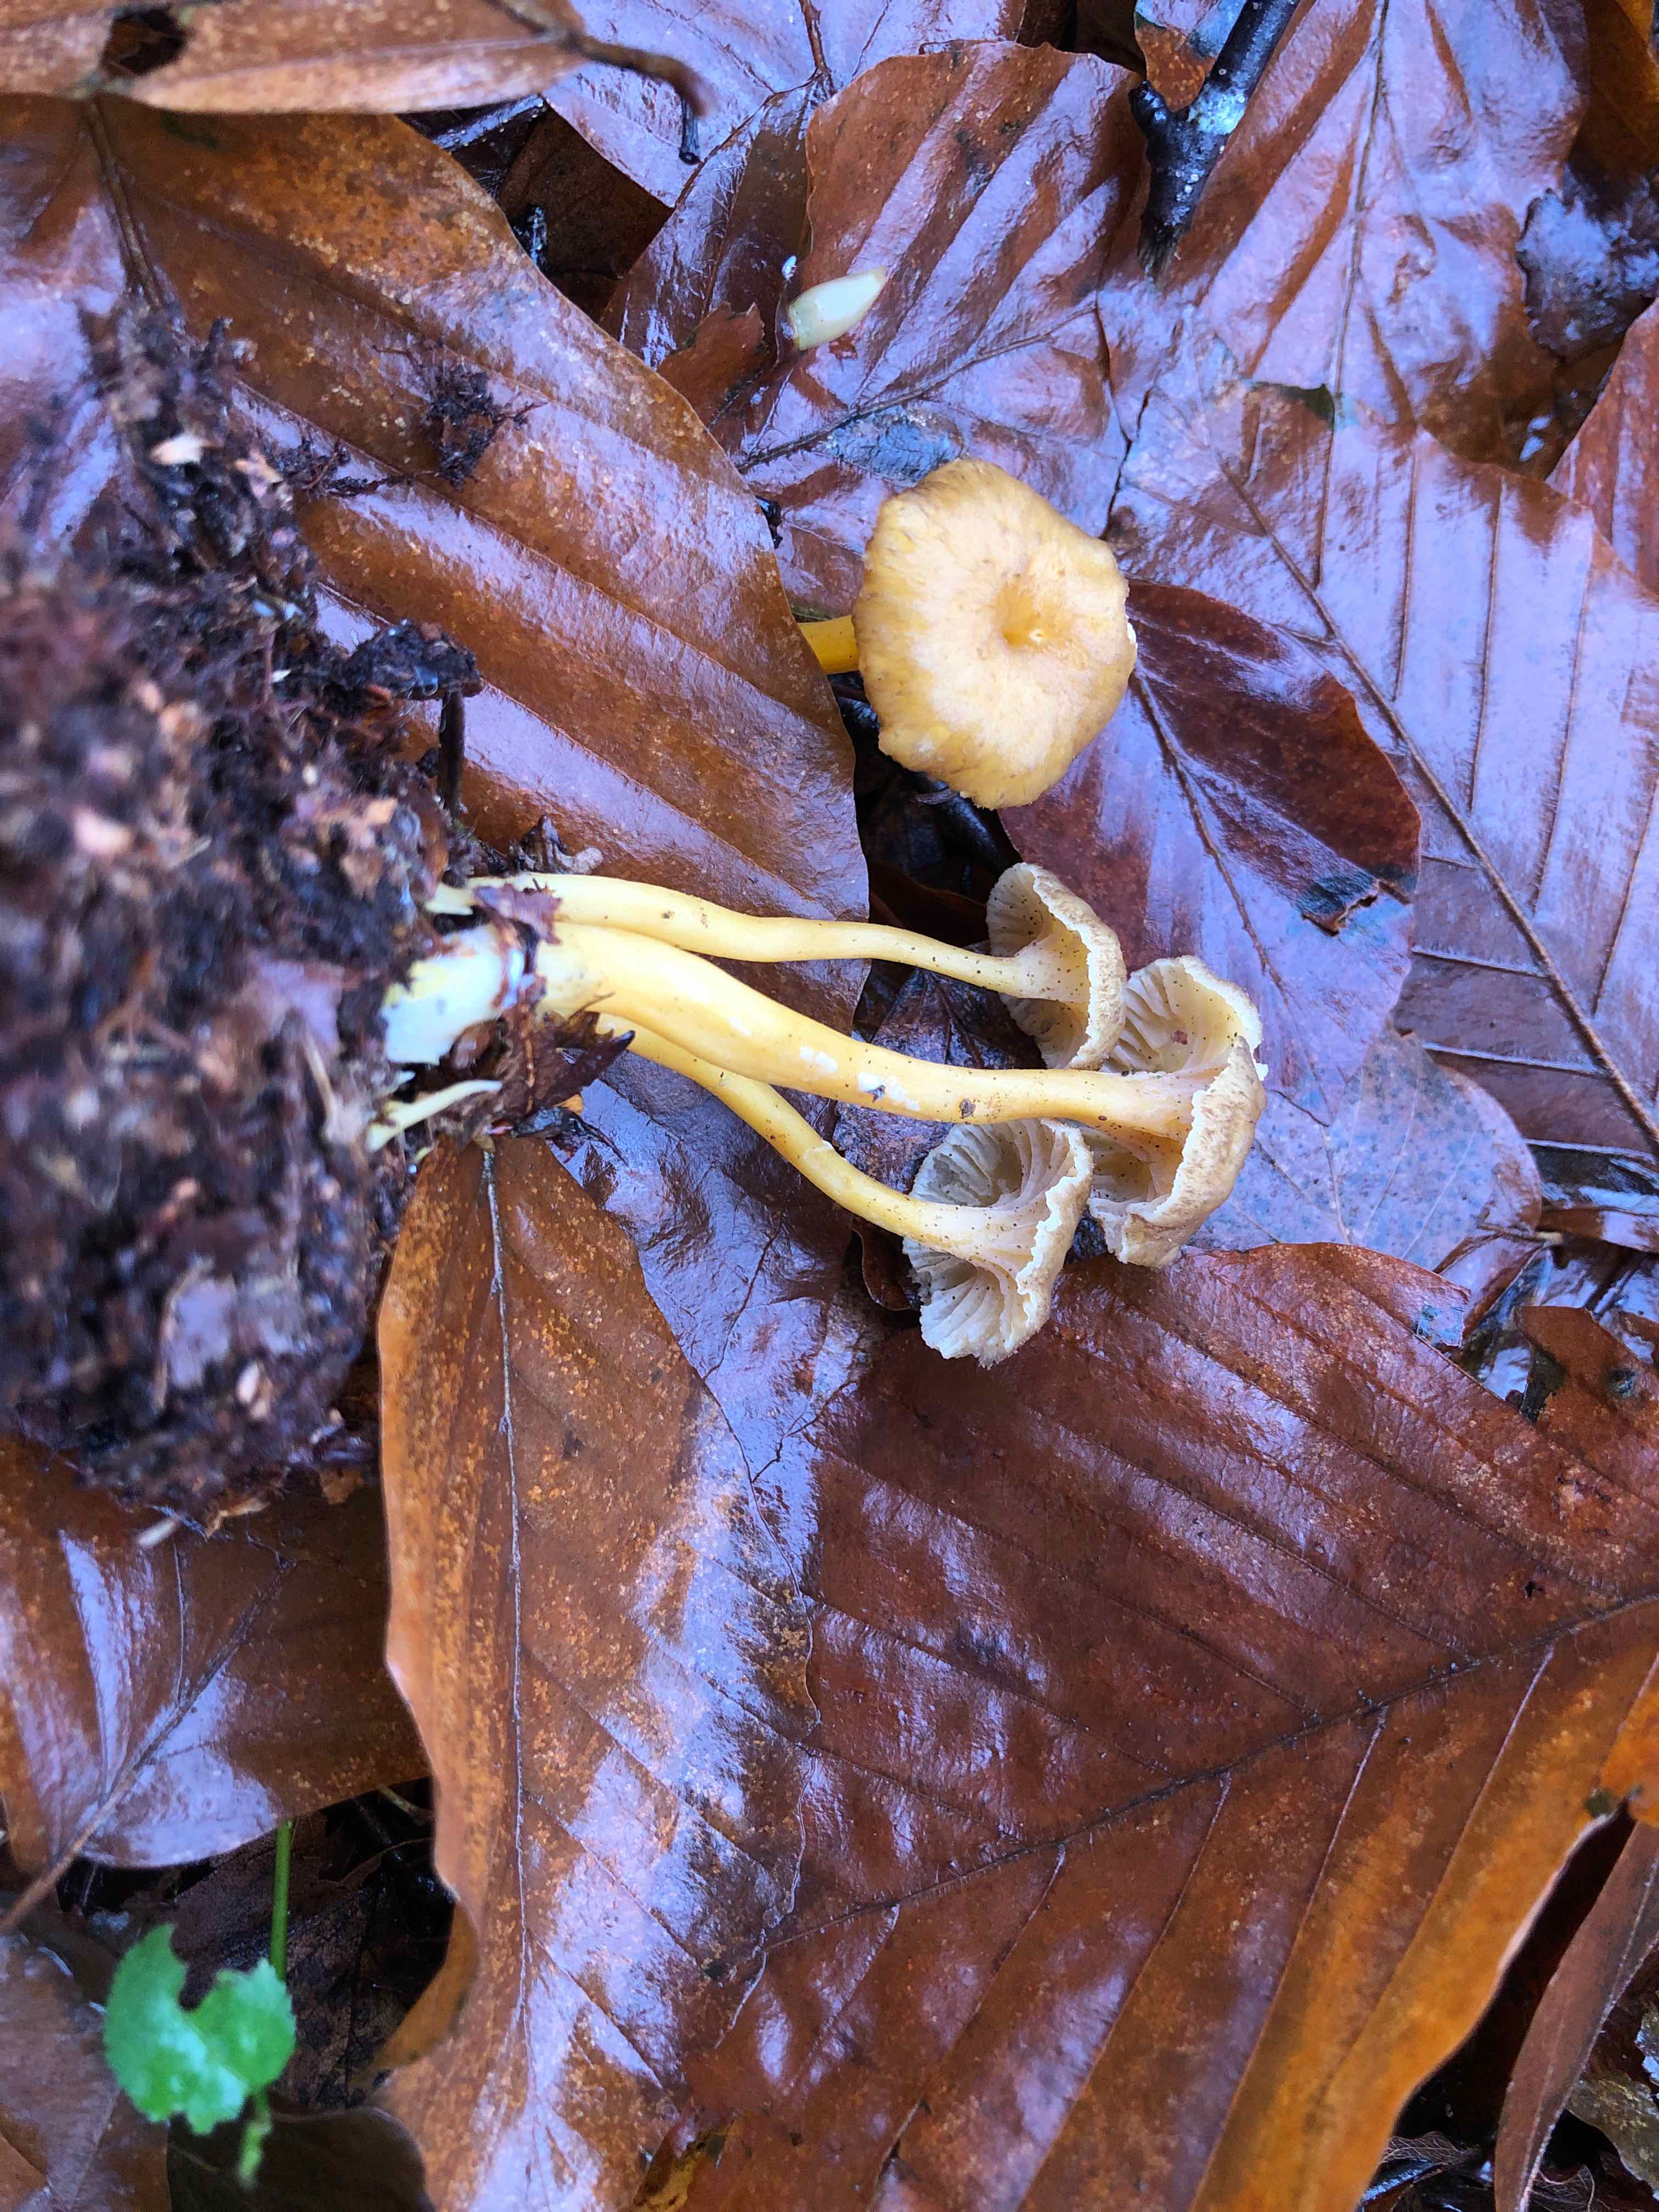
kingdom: Fungi
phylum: Basidiomycota
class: Agaricomycetes
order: Cantharellales
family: Hydnaceae
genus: Craterellus
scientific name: Craterellus tubaeformis
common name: tragt-kantarel
